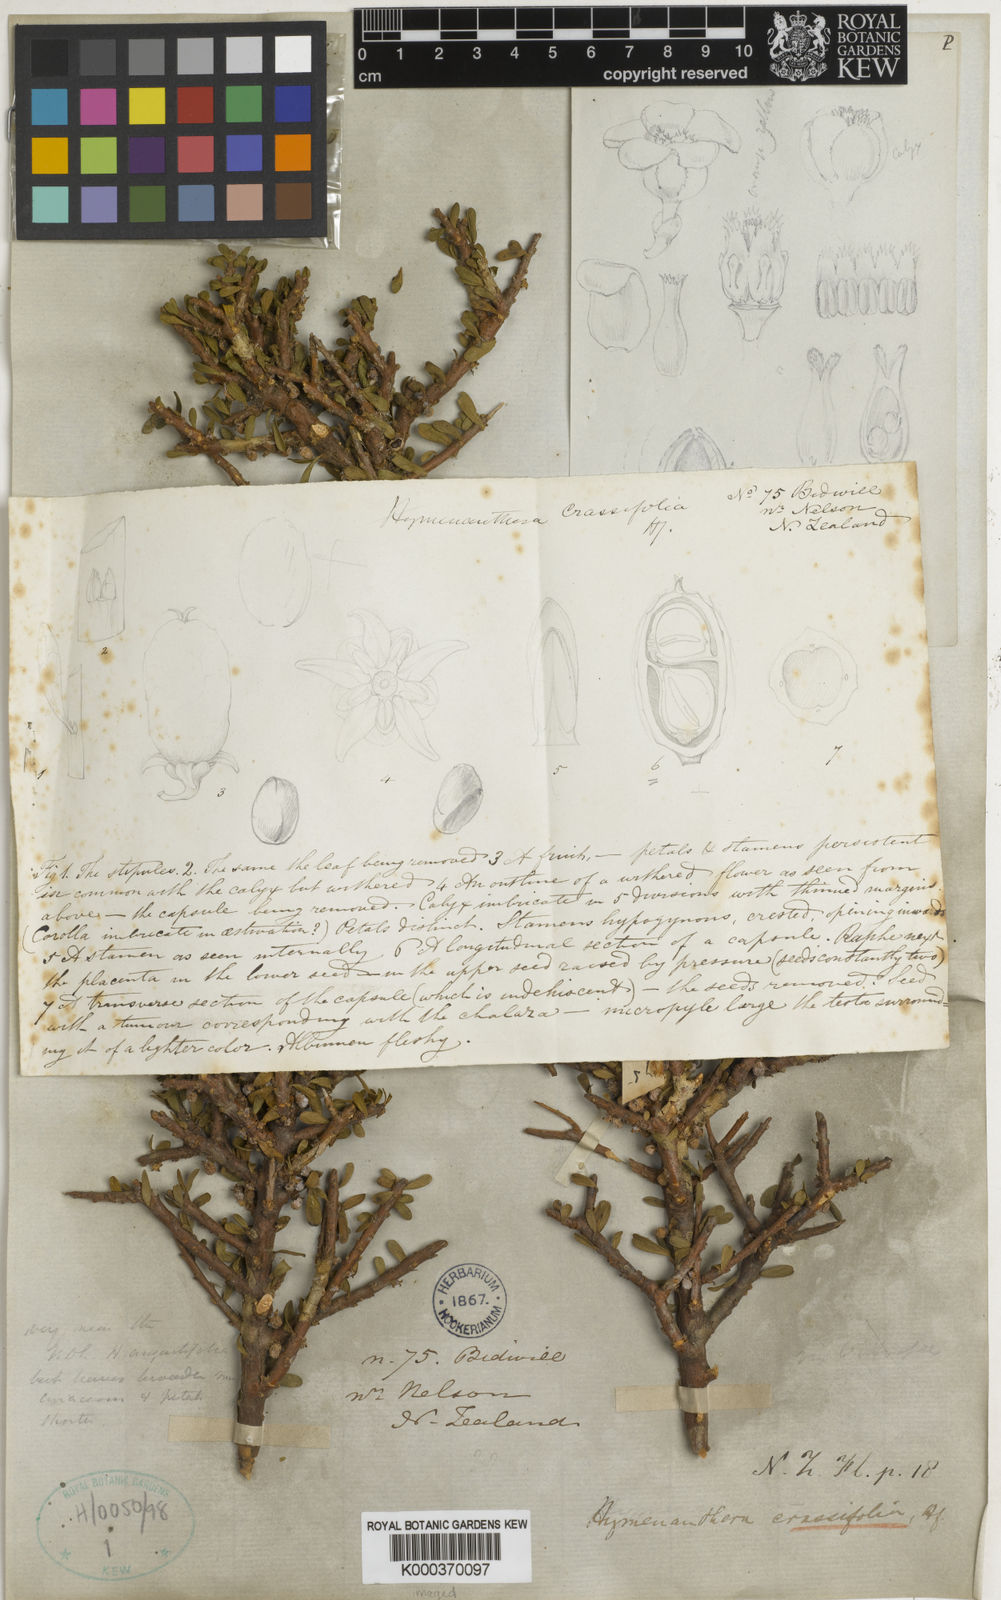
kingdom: Plantae
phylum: Tracheophyta
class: Magnoliopsida
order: Malpighiales
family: Violaceae
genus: Melicytus
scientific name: Melicytus crassifolius
